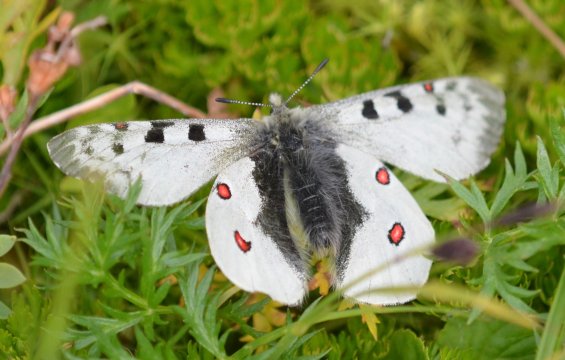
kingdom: Animalia
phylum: Arthropoda
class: Insecta
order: Lepidoptera
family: Papilionidae
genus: Parnassius
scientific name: Parnassius phoebus
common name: Phoebus Parnassian
